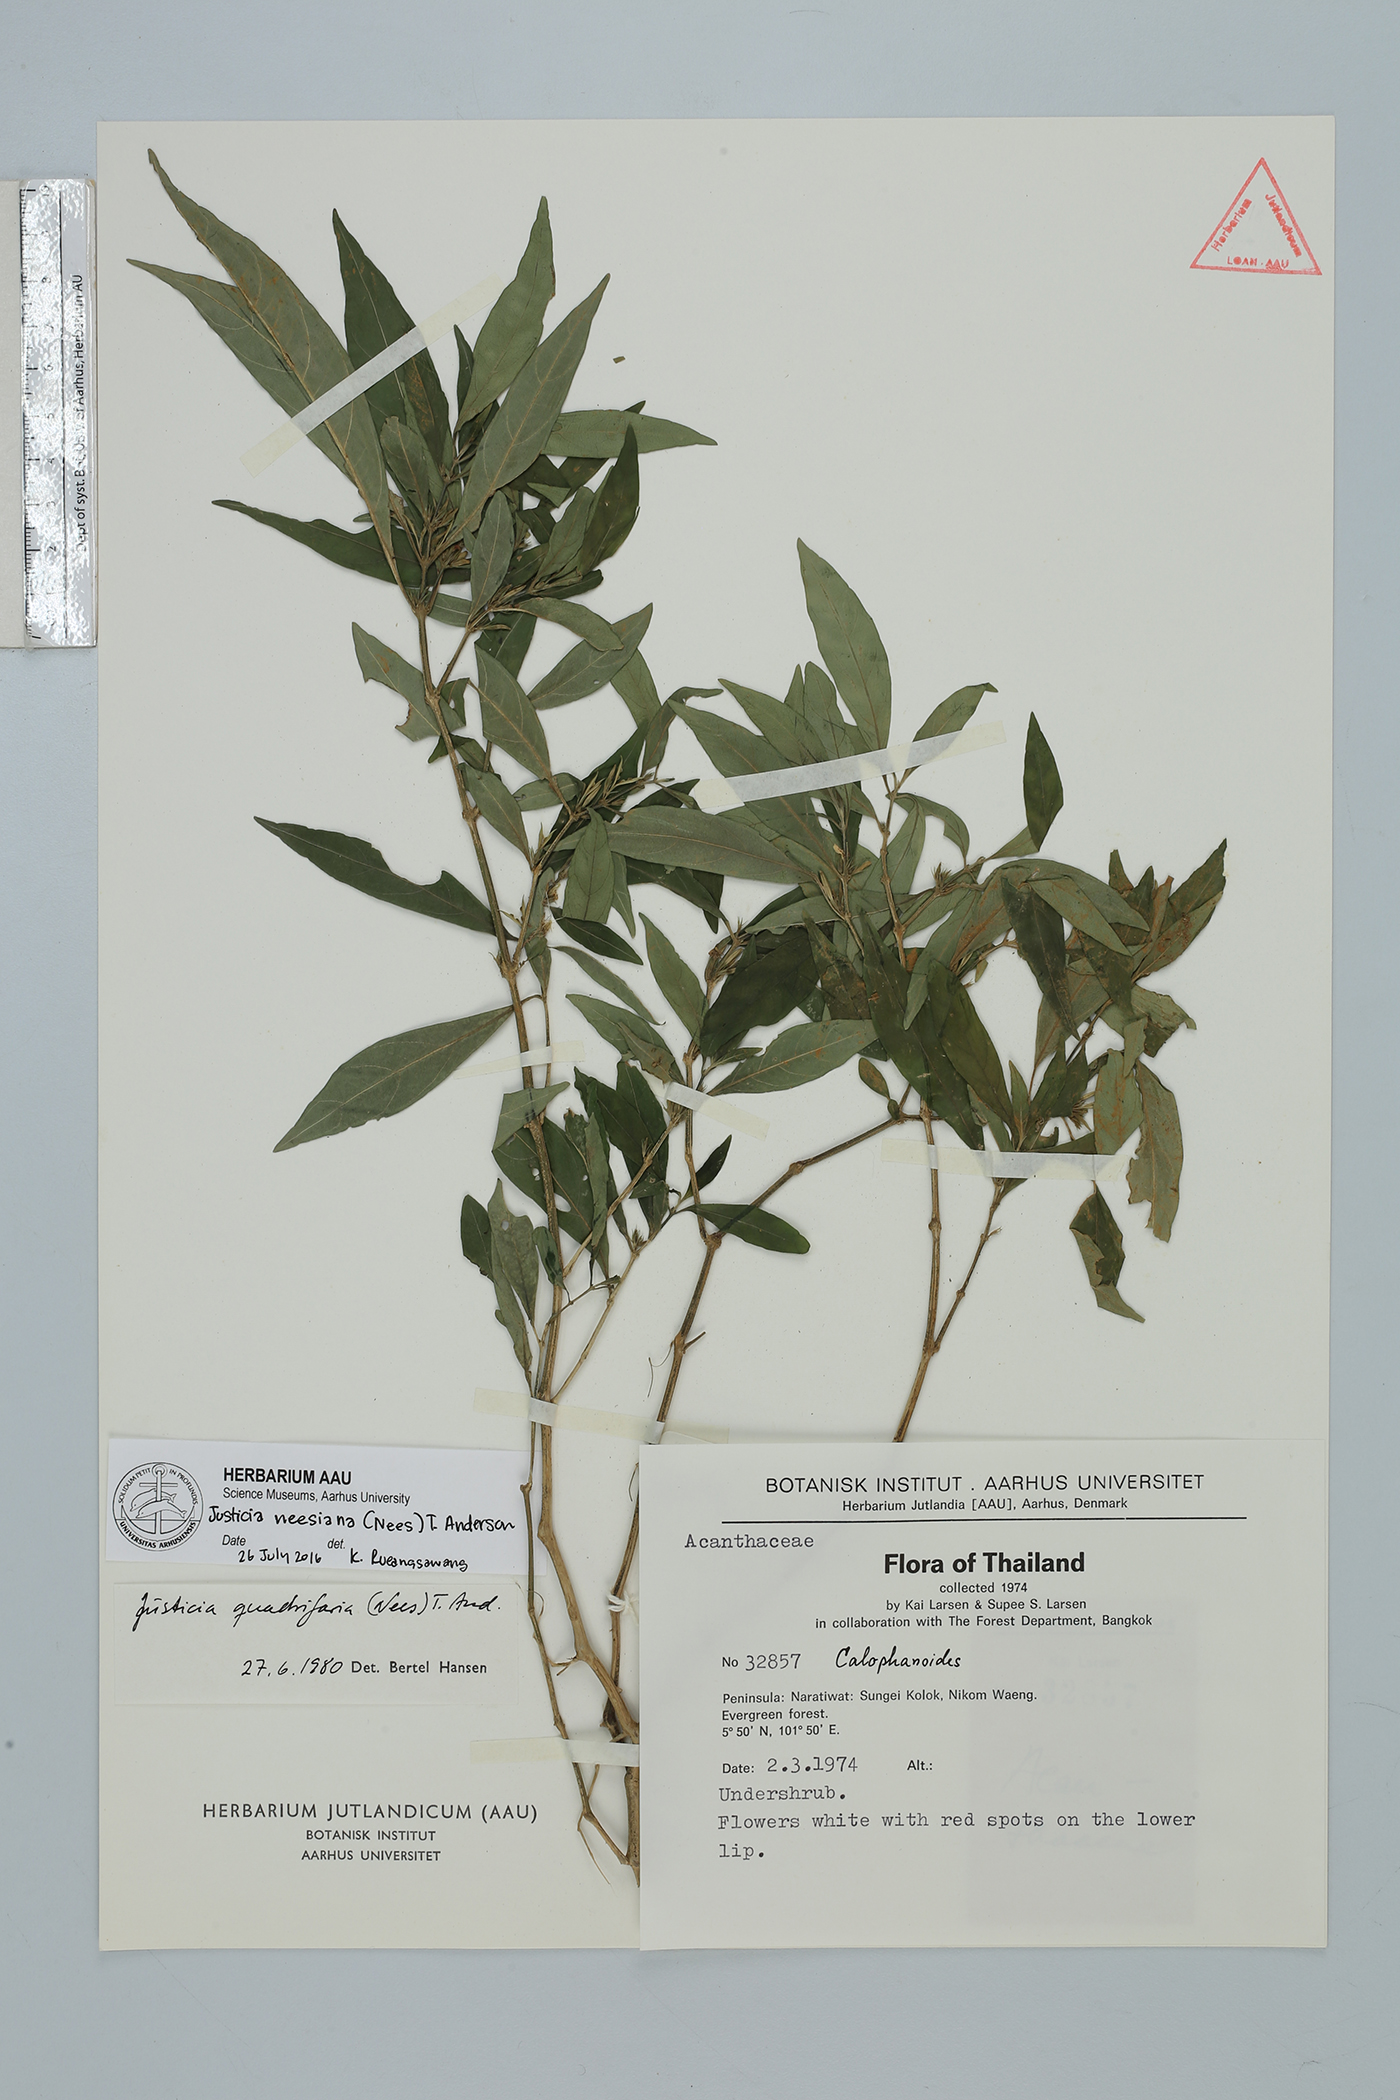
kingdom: Plantae
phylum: Tracheophyta
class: Magnoliopsida
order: Lamiales
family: Acanthaceae
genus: Justicia
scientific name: Justicia neesiana
